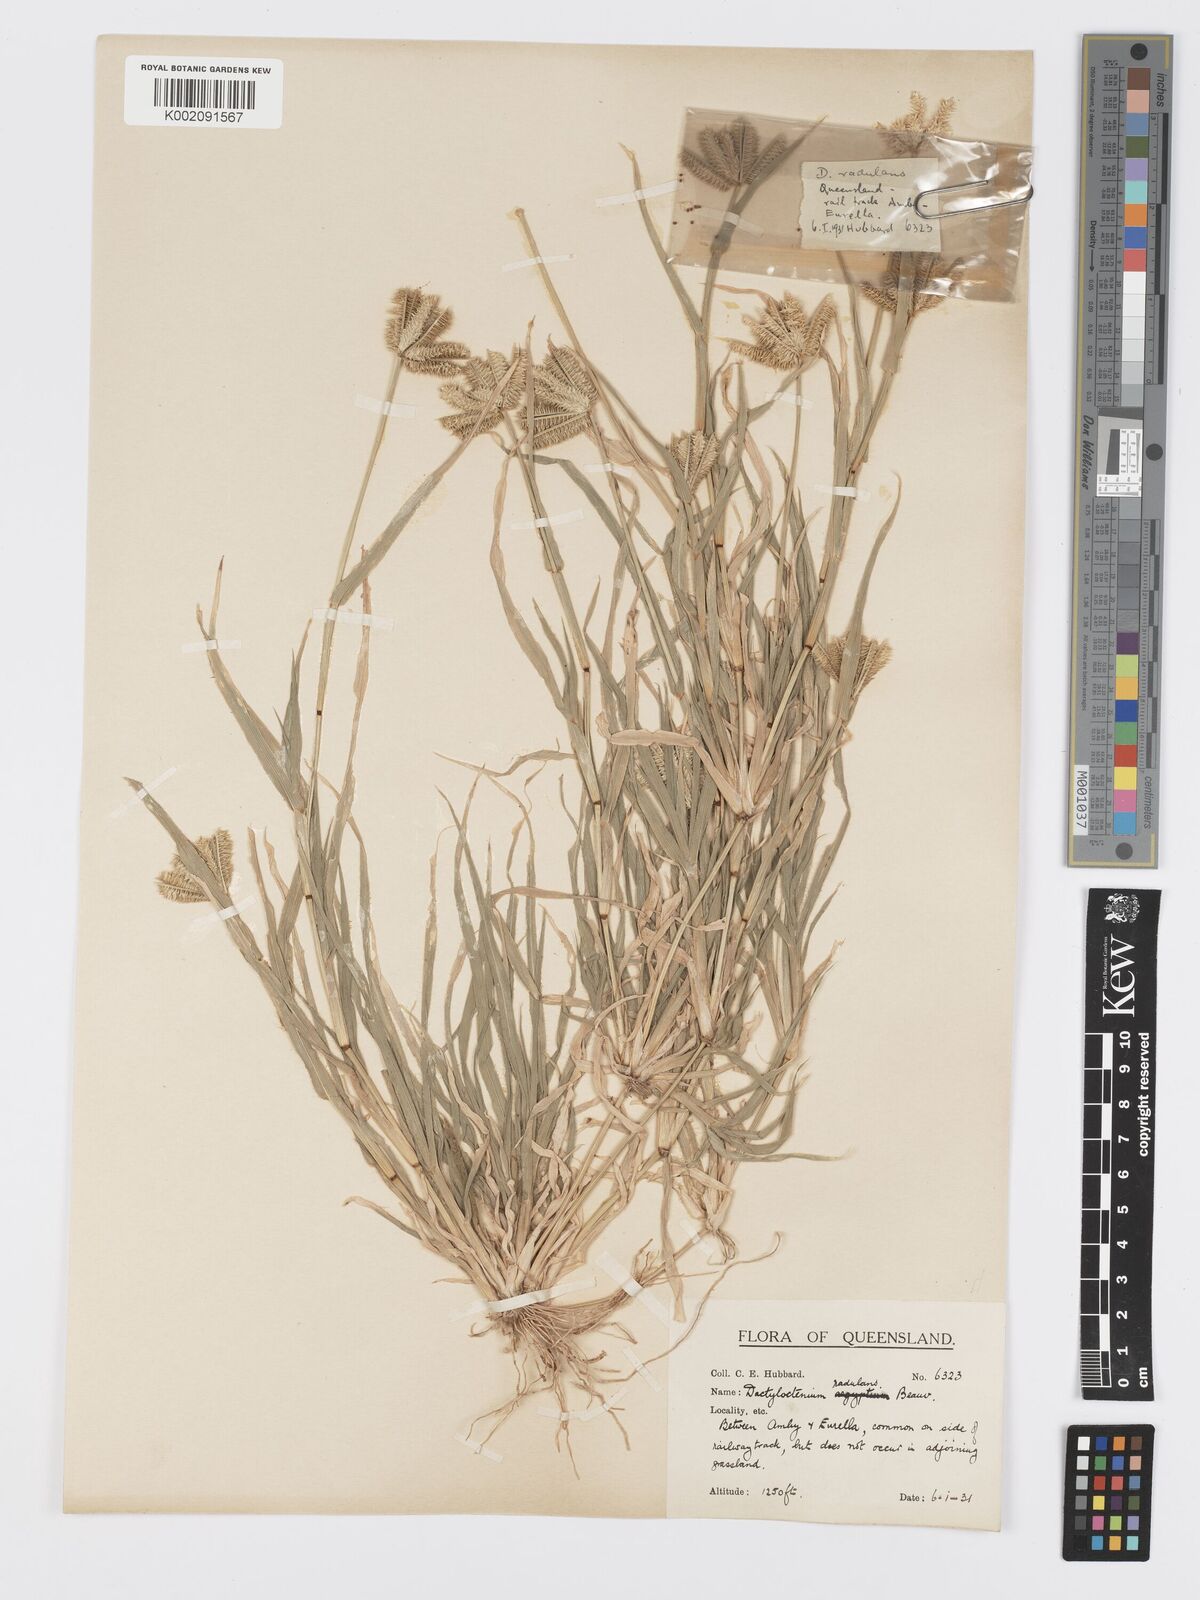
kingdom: Plantae
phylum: Tracheophyta
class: Liliopsida
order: Poales
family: Poaceae
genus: Dactyloctenium
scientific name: Dactyloctenium radulans
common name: Button-grass
